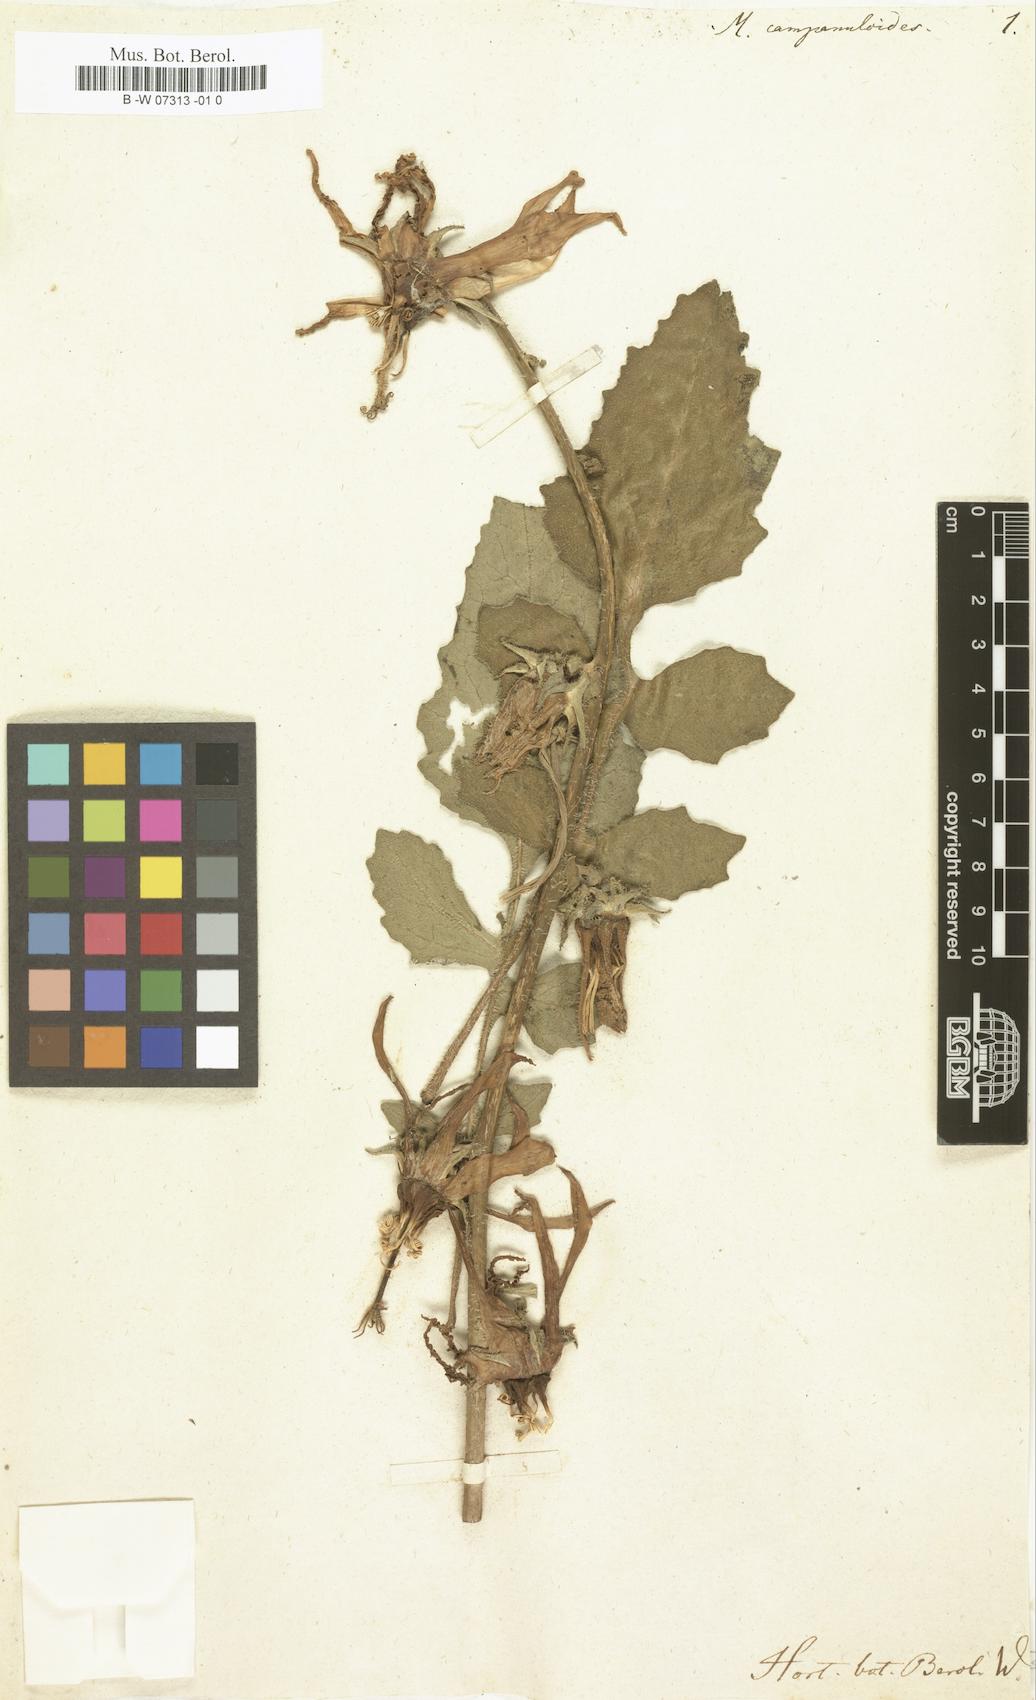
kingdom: Plantae
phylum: Tracheophyta
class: Magnoliopsida
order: Asterales
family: Campanulaceae
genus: Michauxia
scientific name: Michauxia campanuloides
